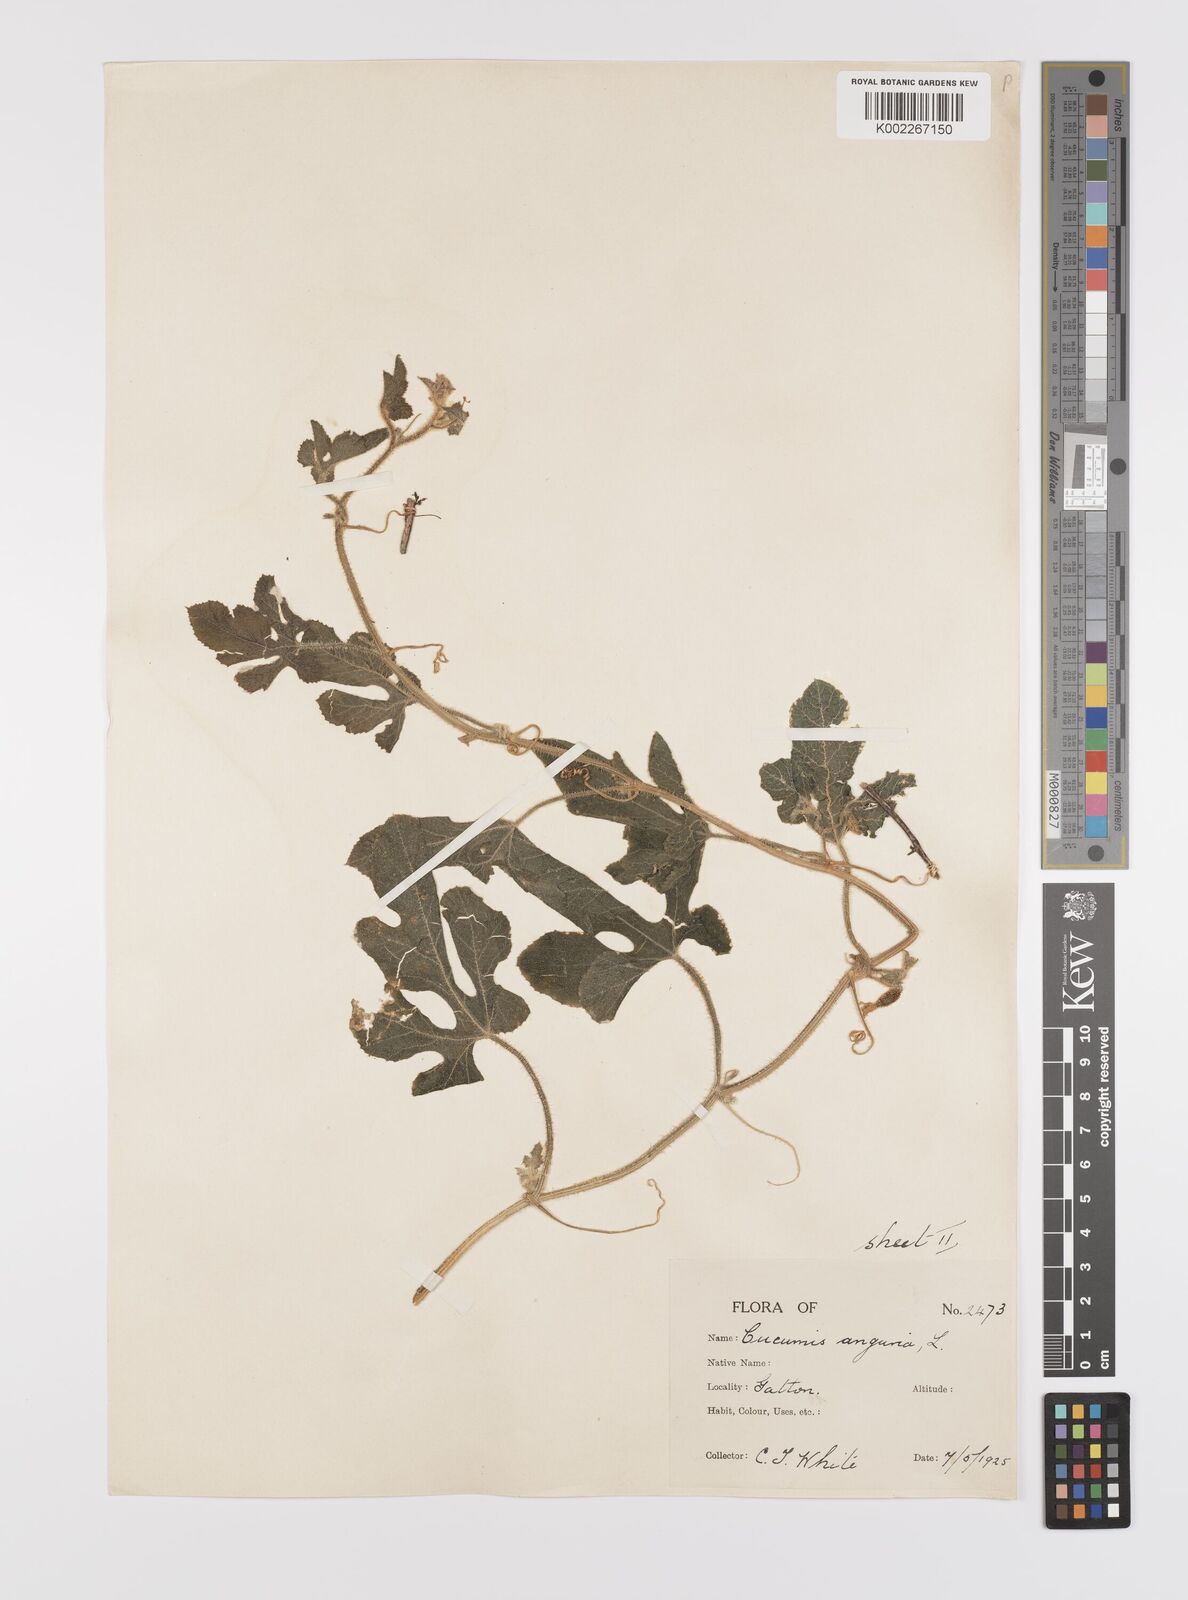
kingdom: Plantae
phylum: Tracheophyta
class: Magnoliopsida
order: Cucurbitales
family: Cucurbitaceae
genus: Cucumis
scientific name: Cucumis anguria
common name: West indian gherkin
